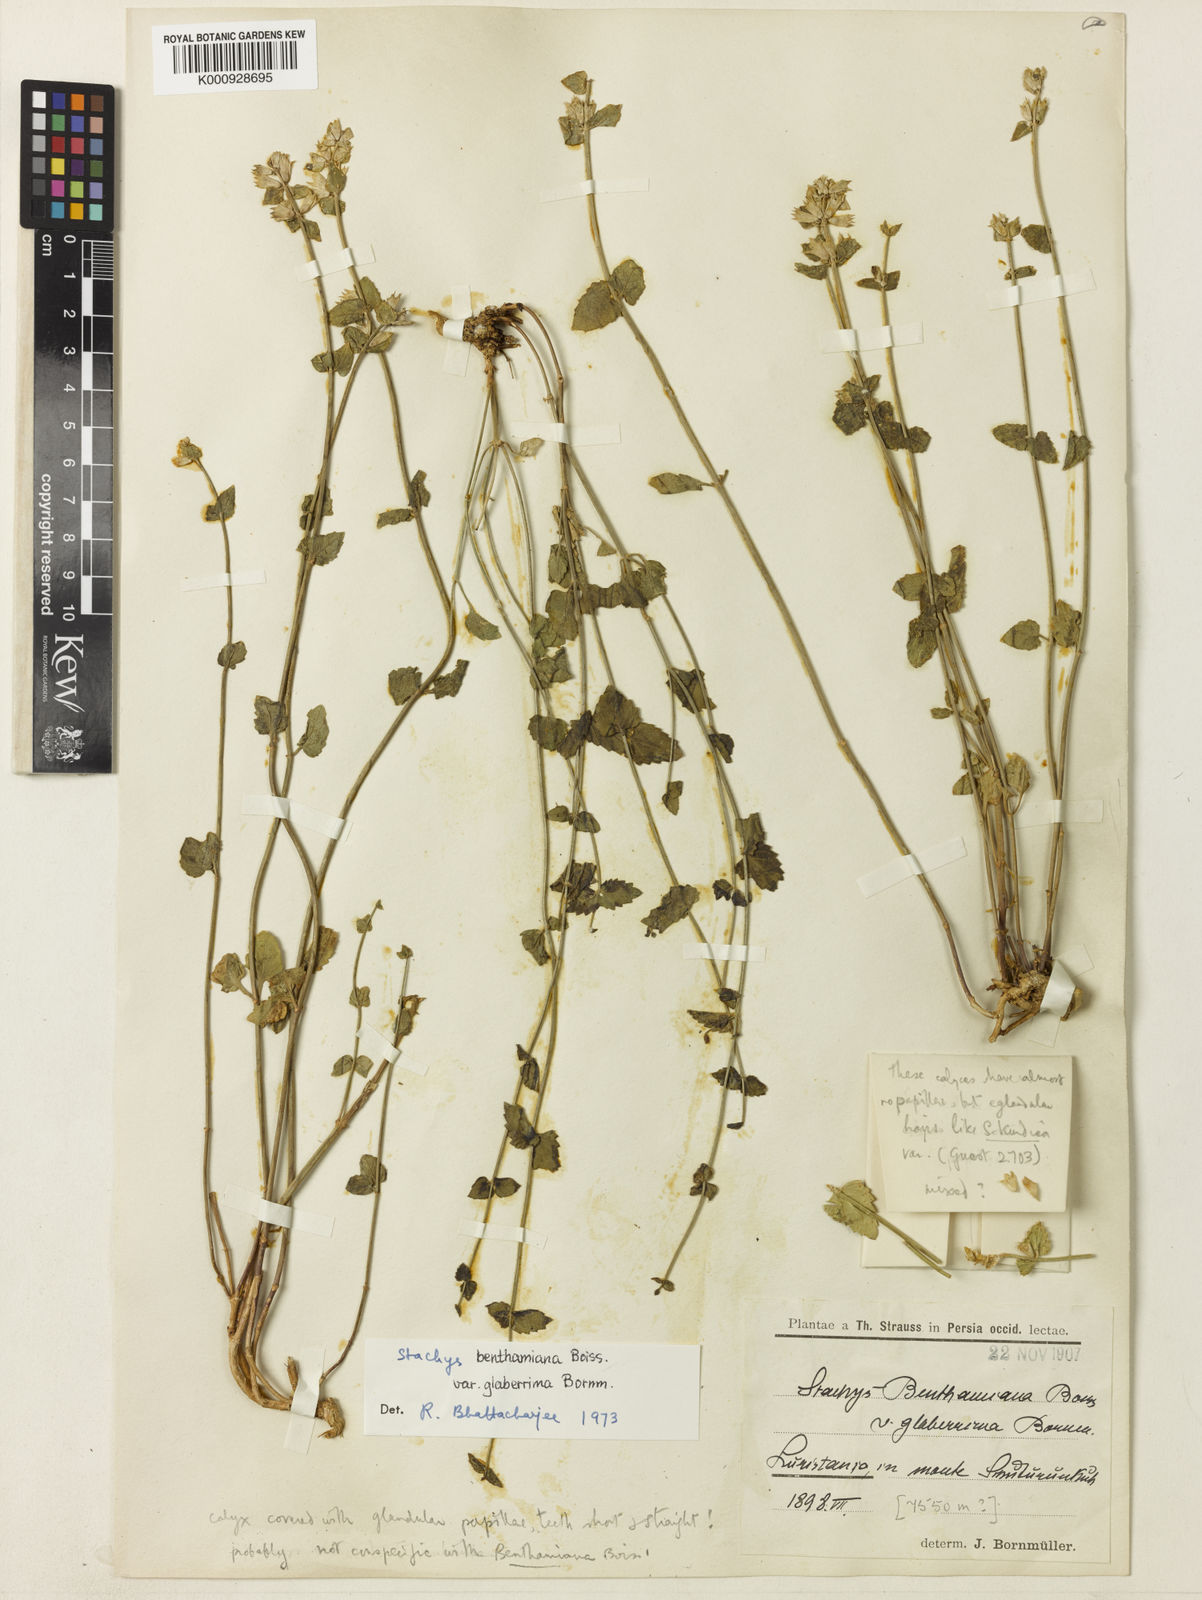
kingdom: Plantae
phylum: Tracheophyta
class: Magnoliopsida
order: Lamiales
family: Lamiaceae
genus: Stachys
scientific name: Stachys benthamiana
